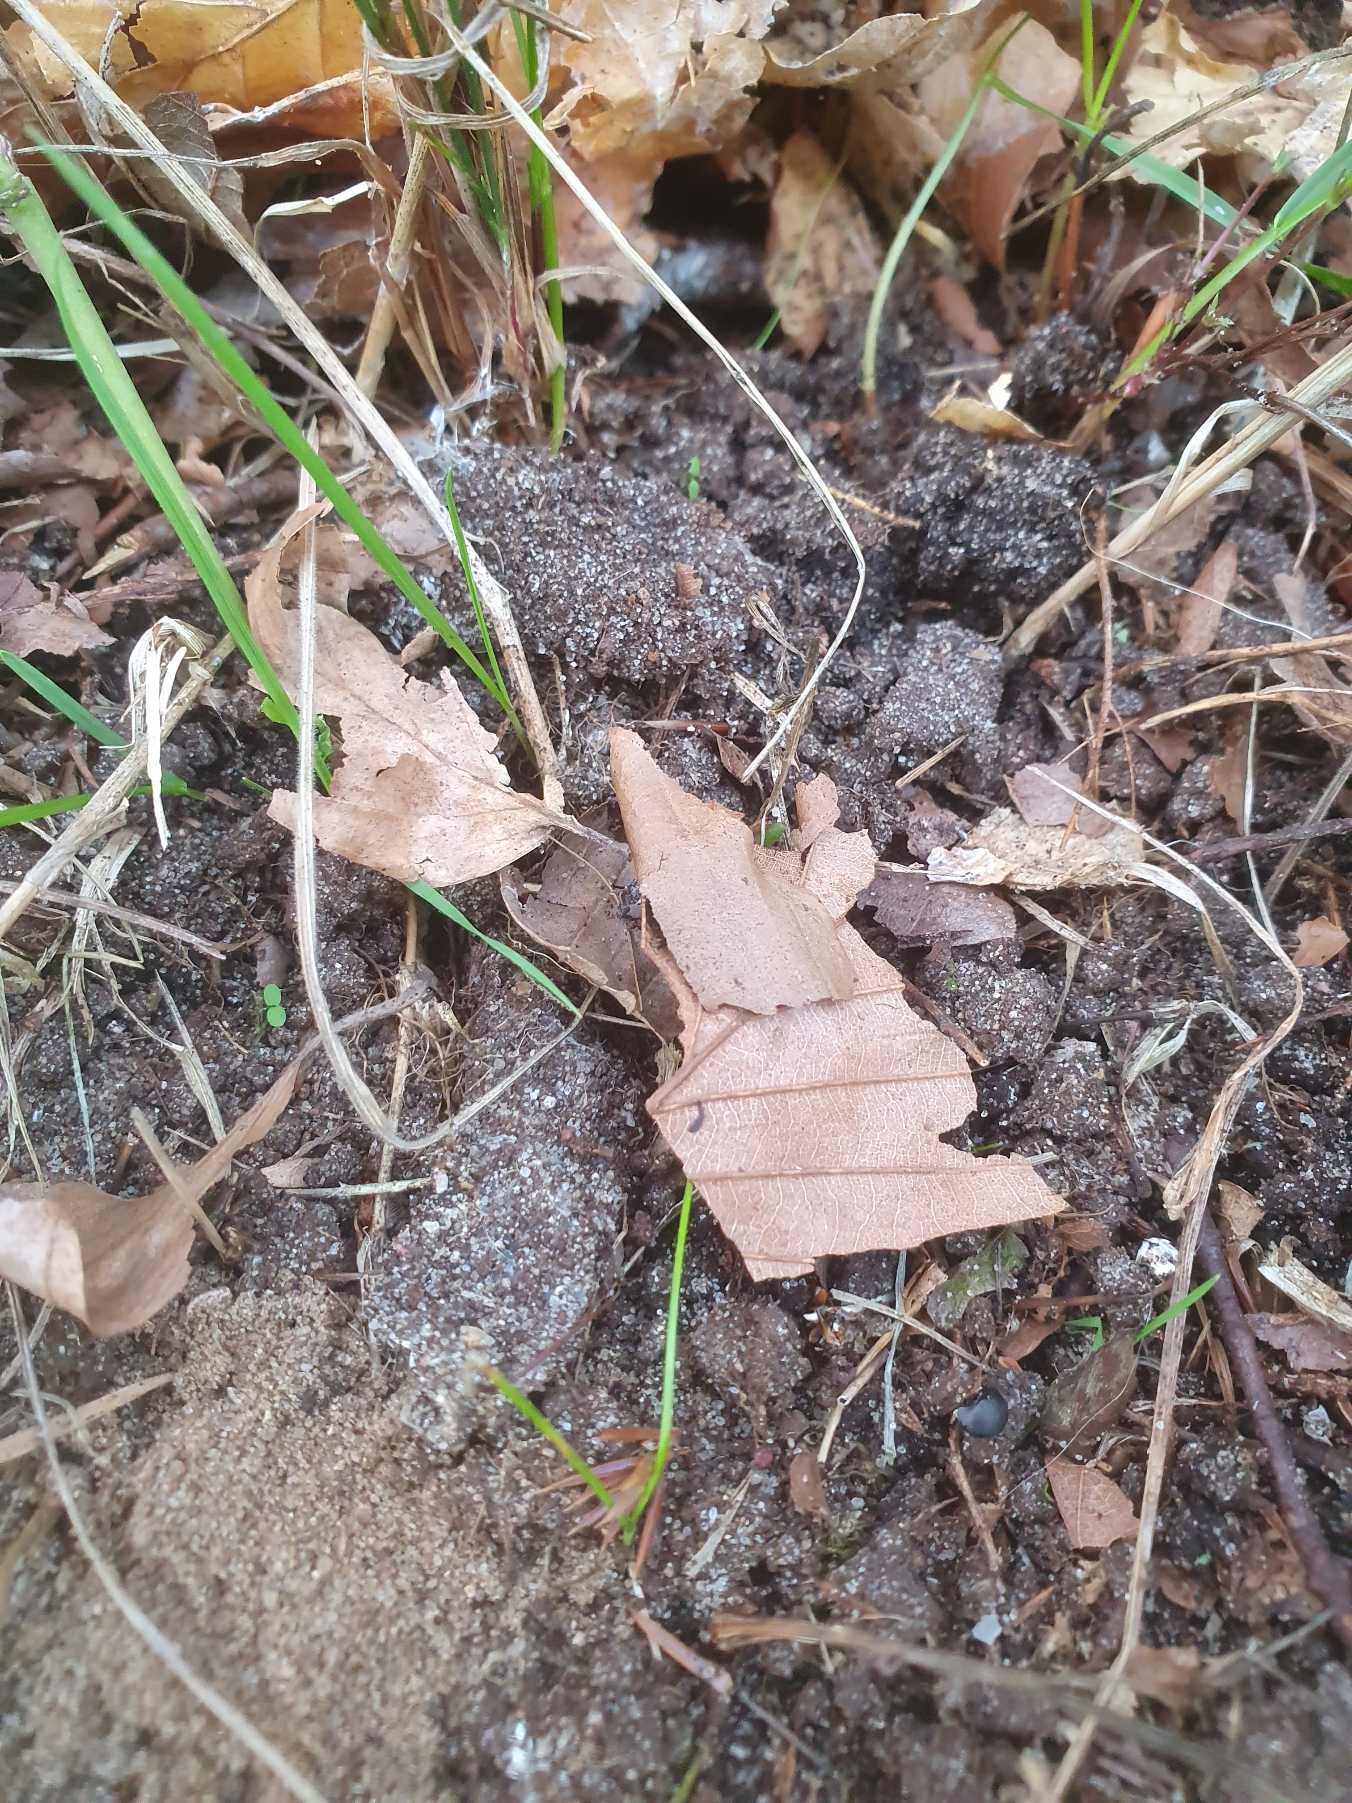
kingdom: Animalia
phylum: Arthropoda
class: Arachnida
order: Araneae
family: Atypidae
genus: Atypus
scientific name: Atypus affinis
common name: Nordlig fugleedderkop
